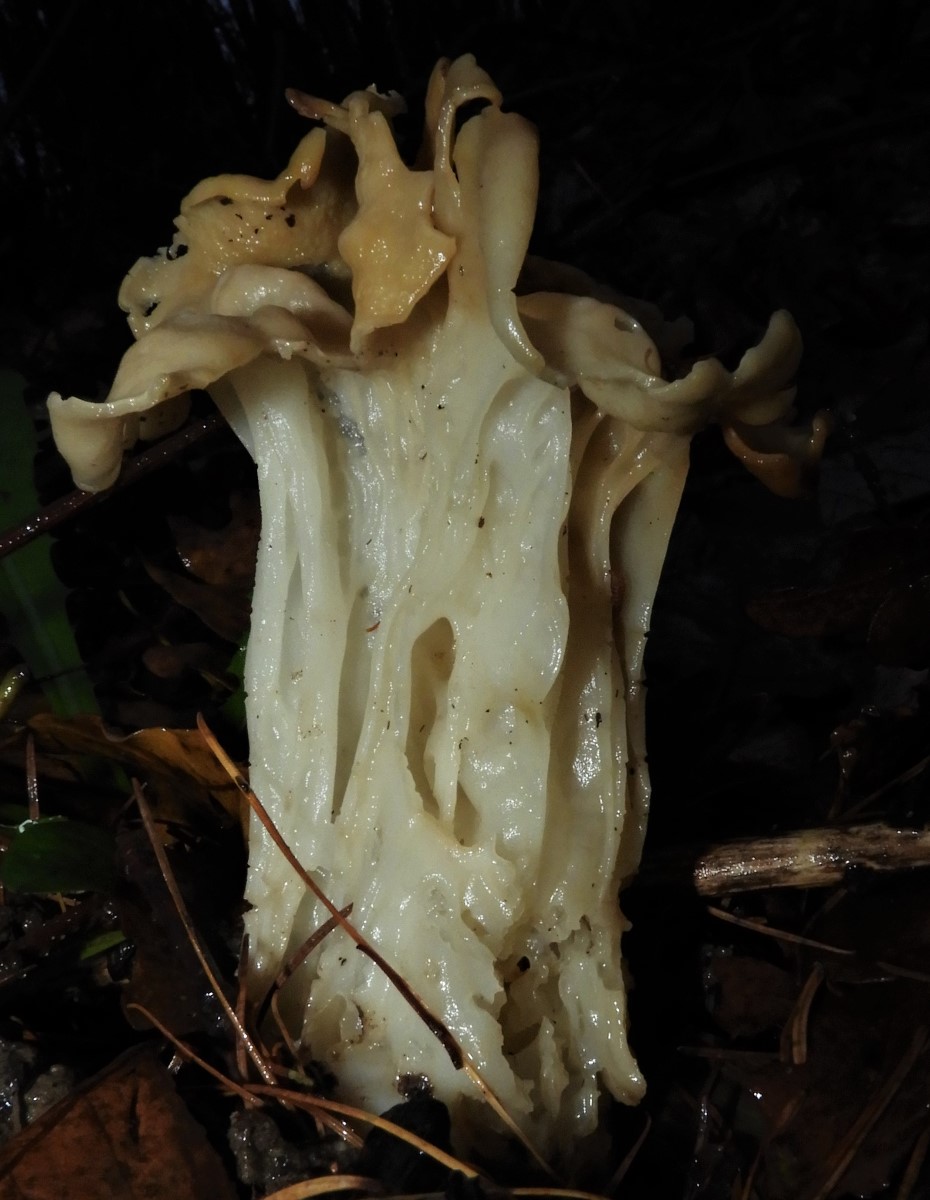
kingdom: Fungi
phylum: Ascomycota
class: Pezizomycetes
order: Pezizales
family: Helvellaceae
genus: Helvella
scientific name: Helvella crispa
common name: kruset foldhat
